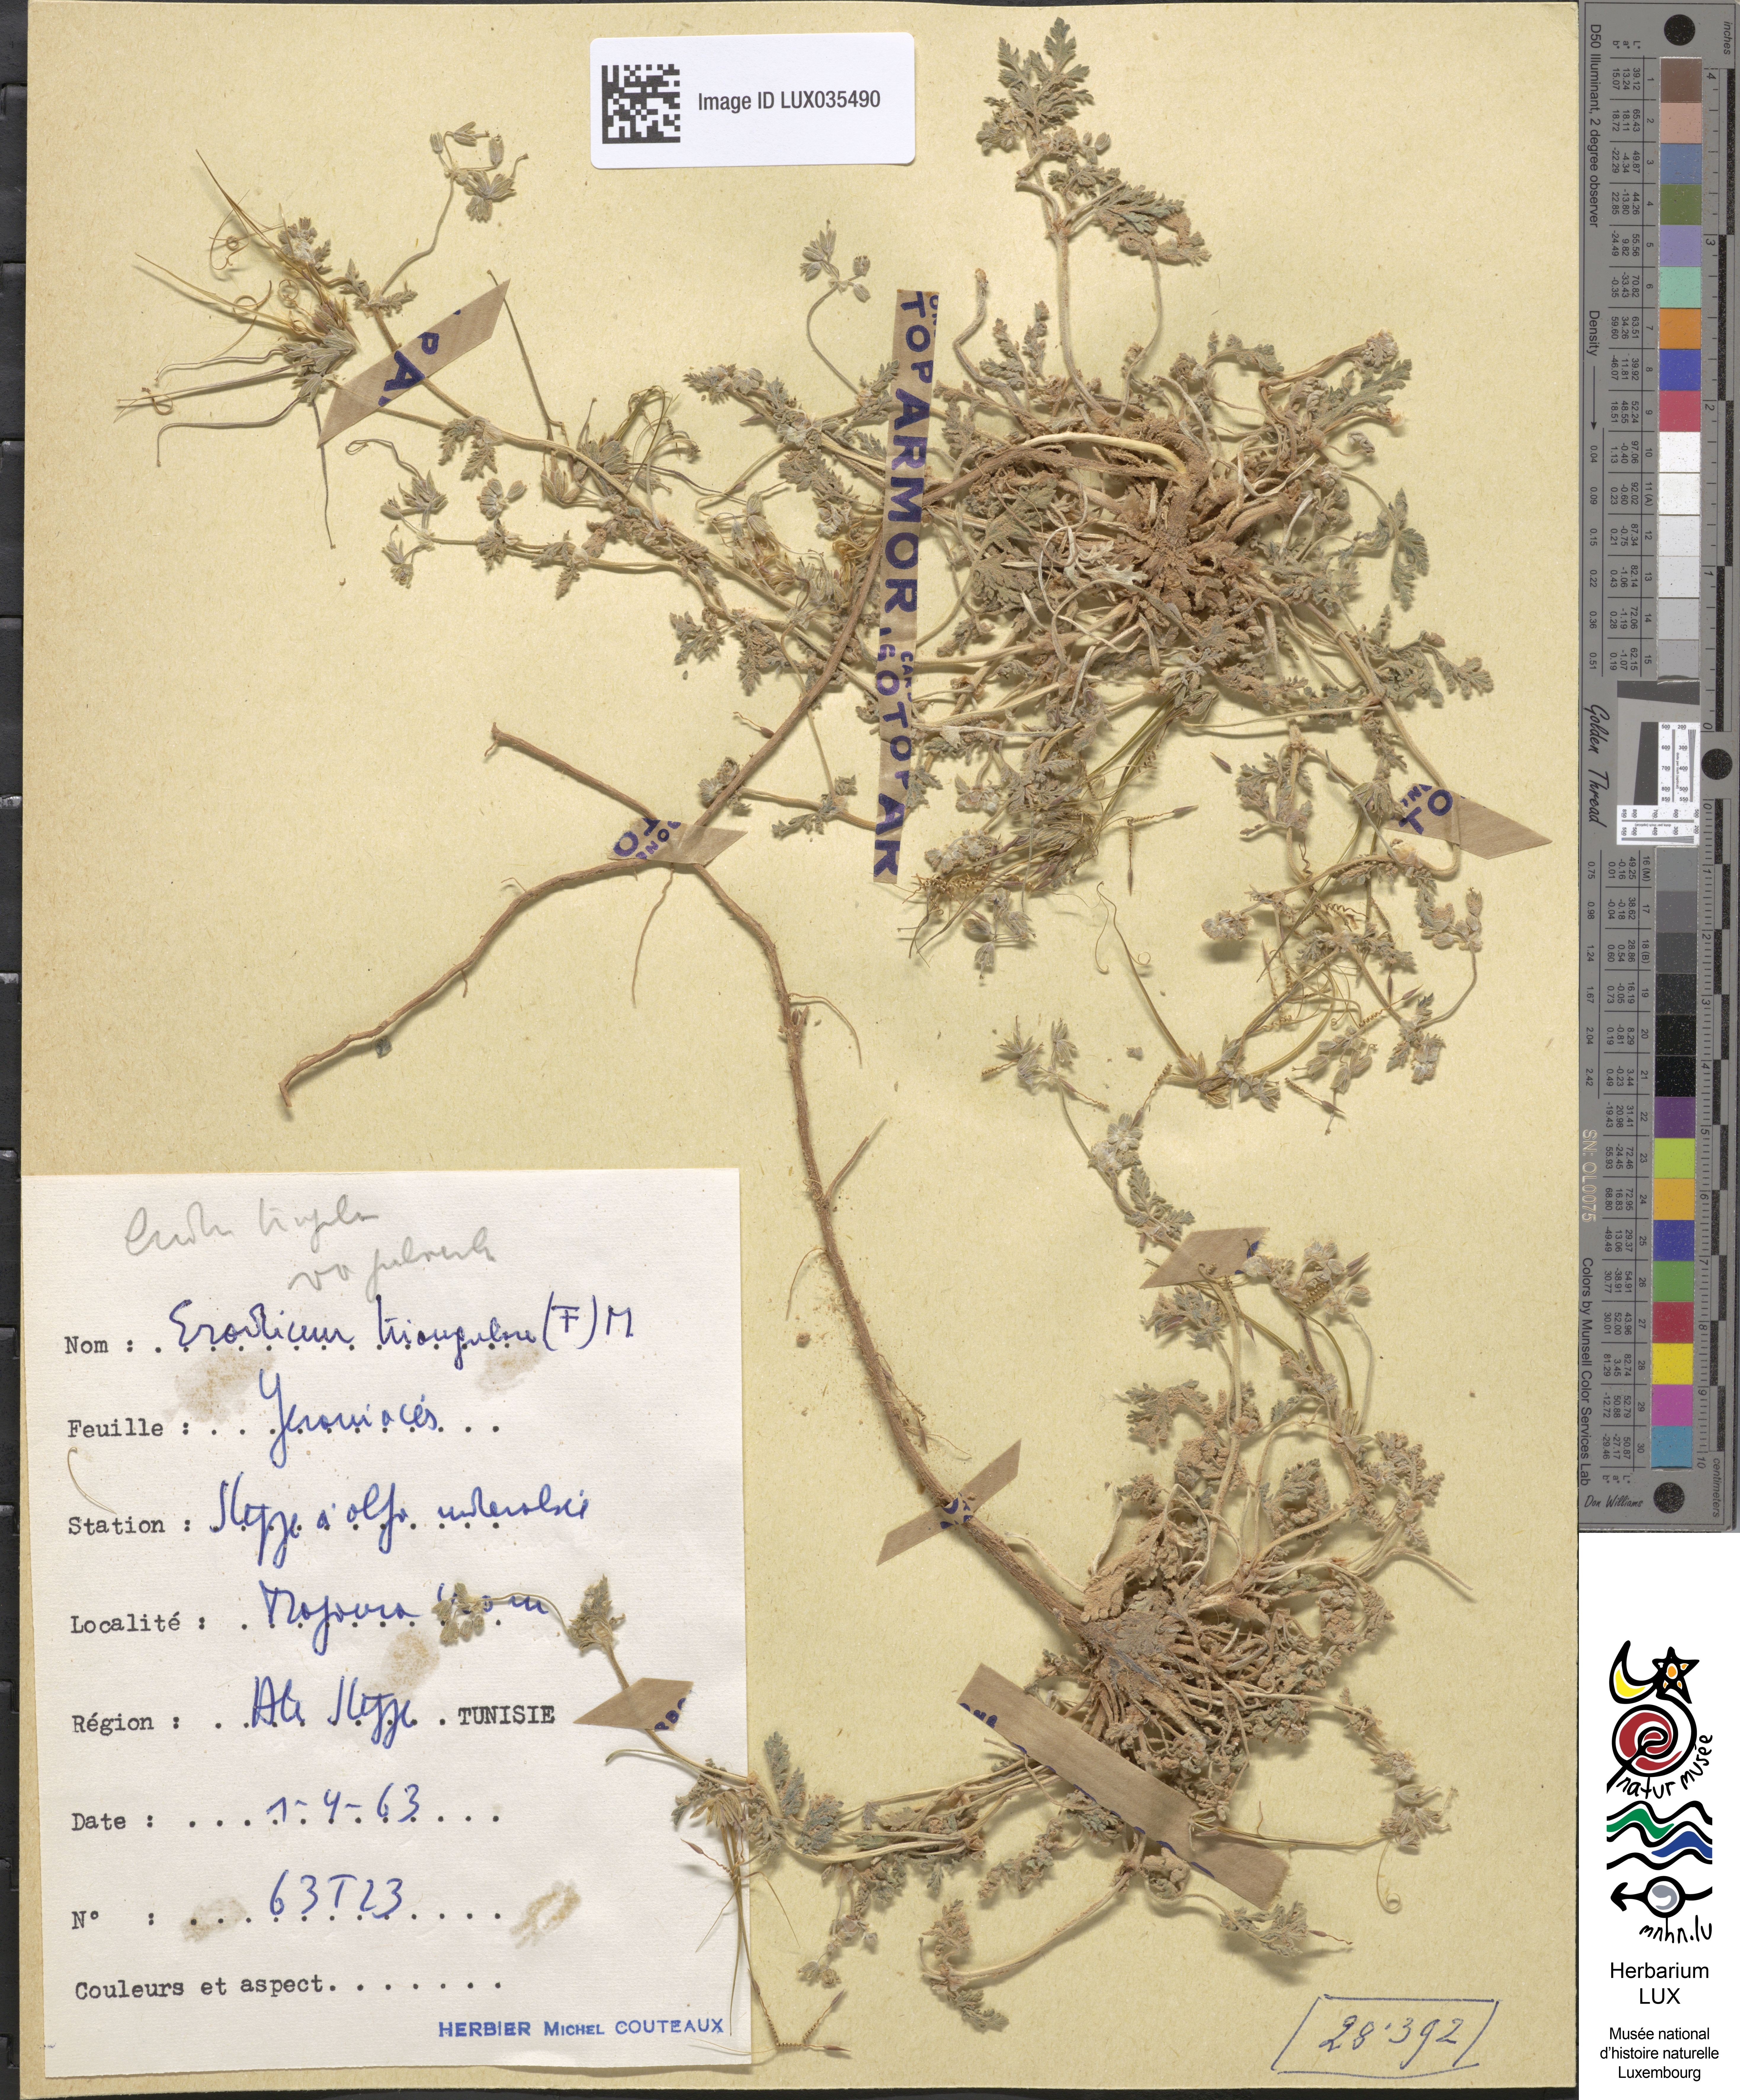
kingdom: Plantae
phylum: Tracheophyta
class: Magnoliopsida
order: Geraniales
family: Geraniaceae
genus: Erodium
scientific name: Erodium laciniatum
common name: Cutleaf stork's bill
